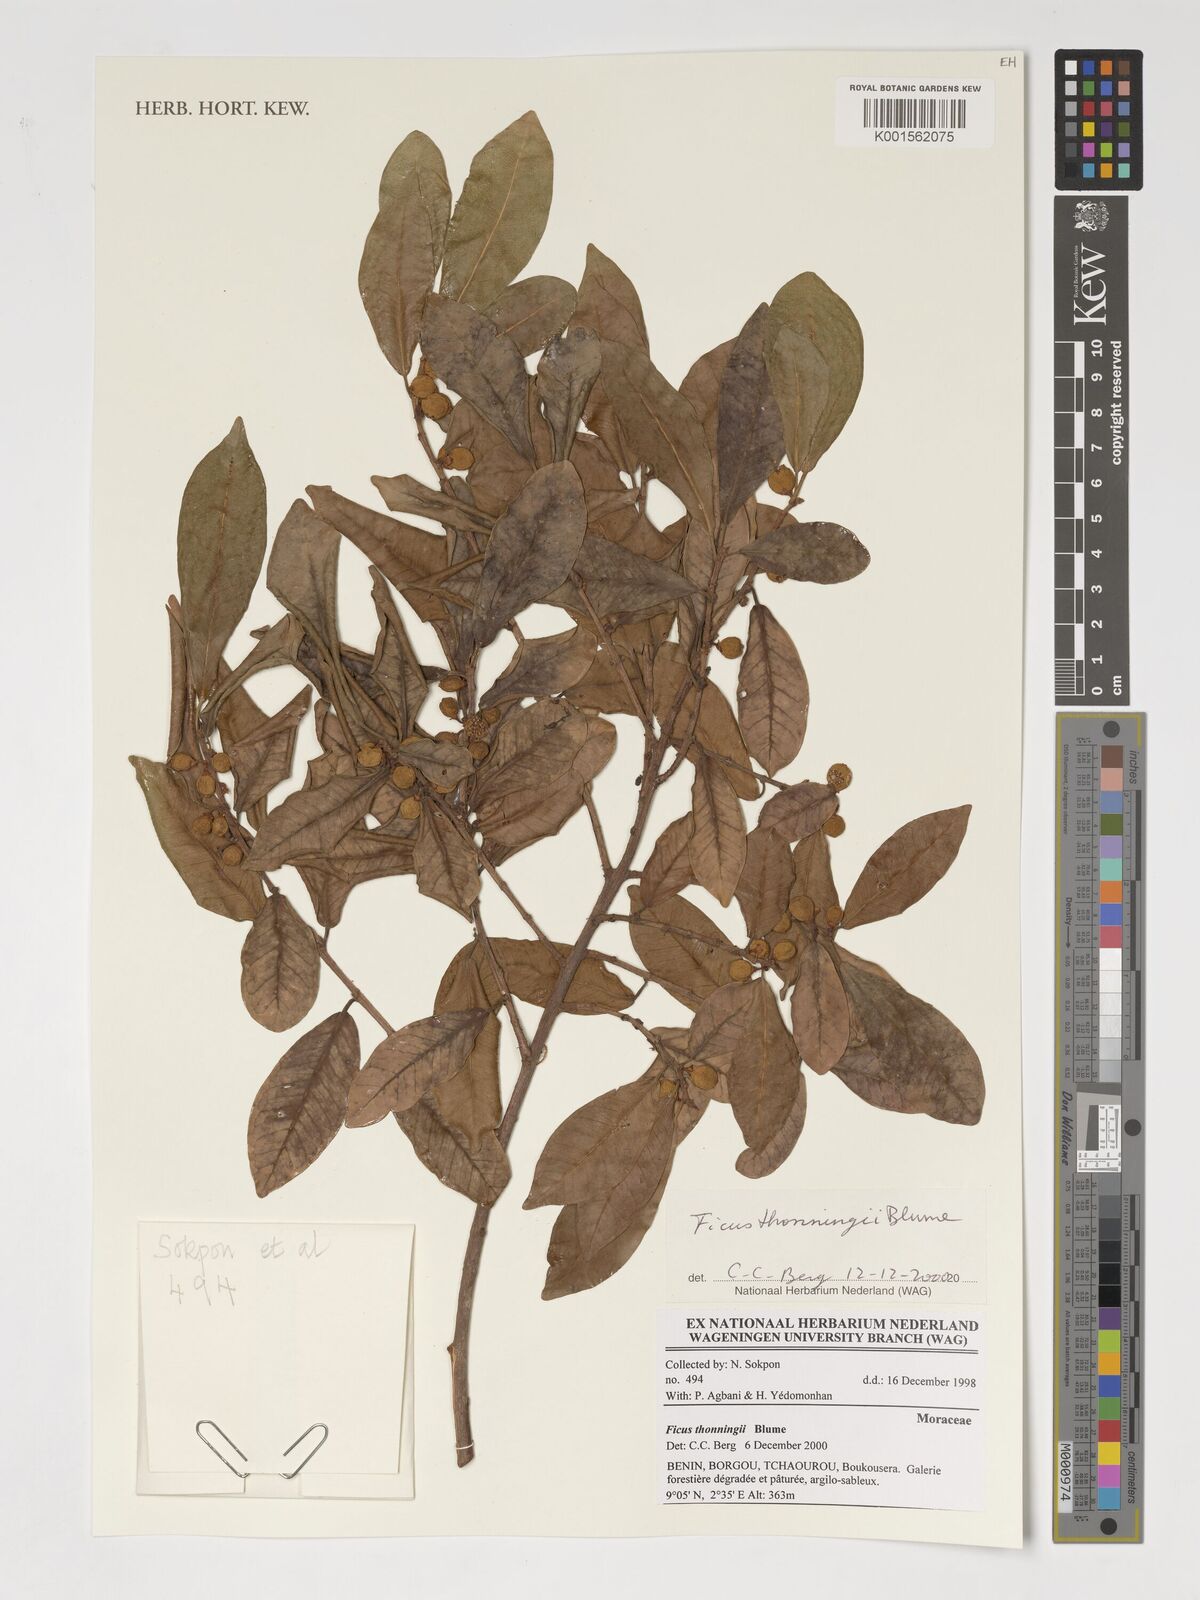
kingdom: Plantae
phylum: Tracheophyta
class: Magnoliopsida
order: Rosales
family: Moraceae
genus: Ficus
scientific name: Ficus thonningii
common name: Fig
